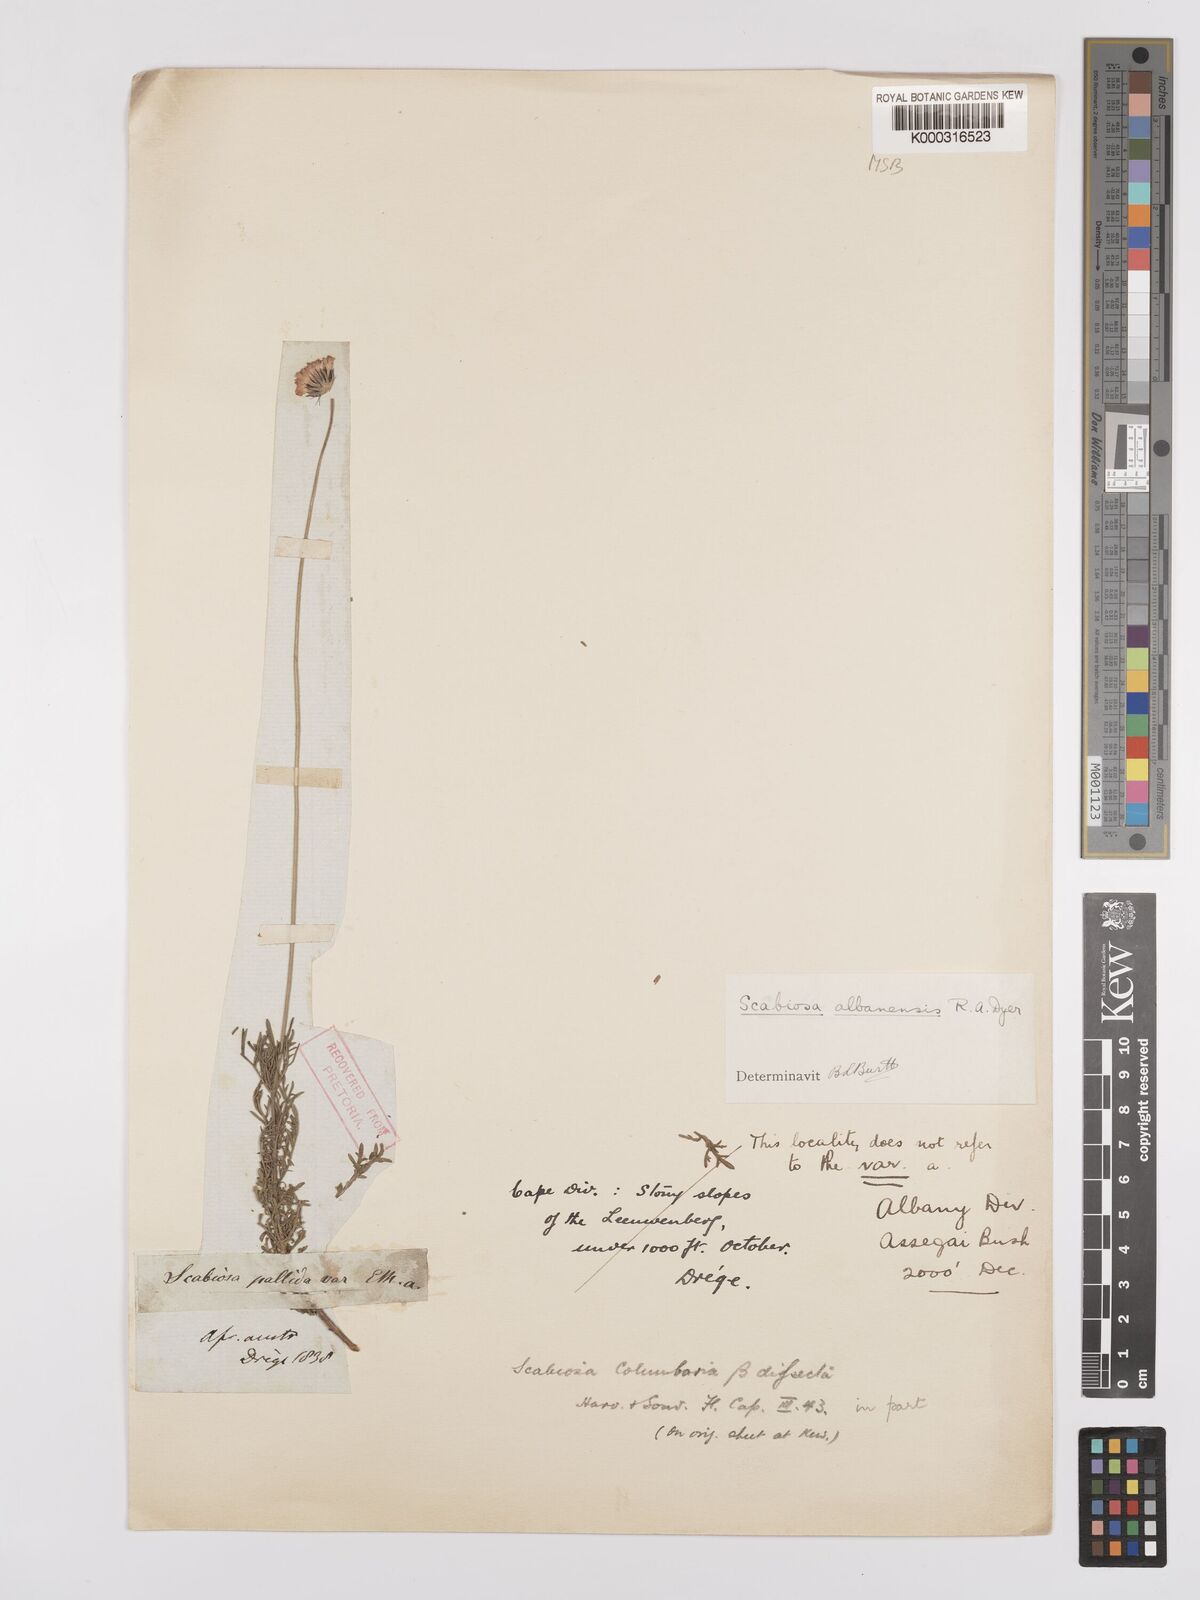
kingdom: Plantae
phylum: Tracheophyta
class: Magnoliopsida
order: Dipsacales
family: Caprifoliaceae
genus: Scabiosa
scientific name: Scabiosa albanensis
